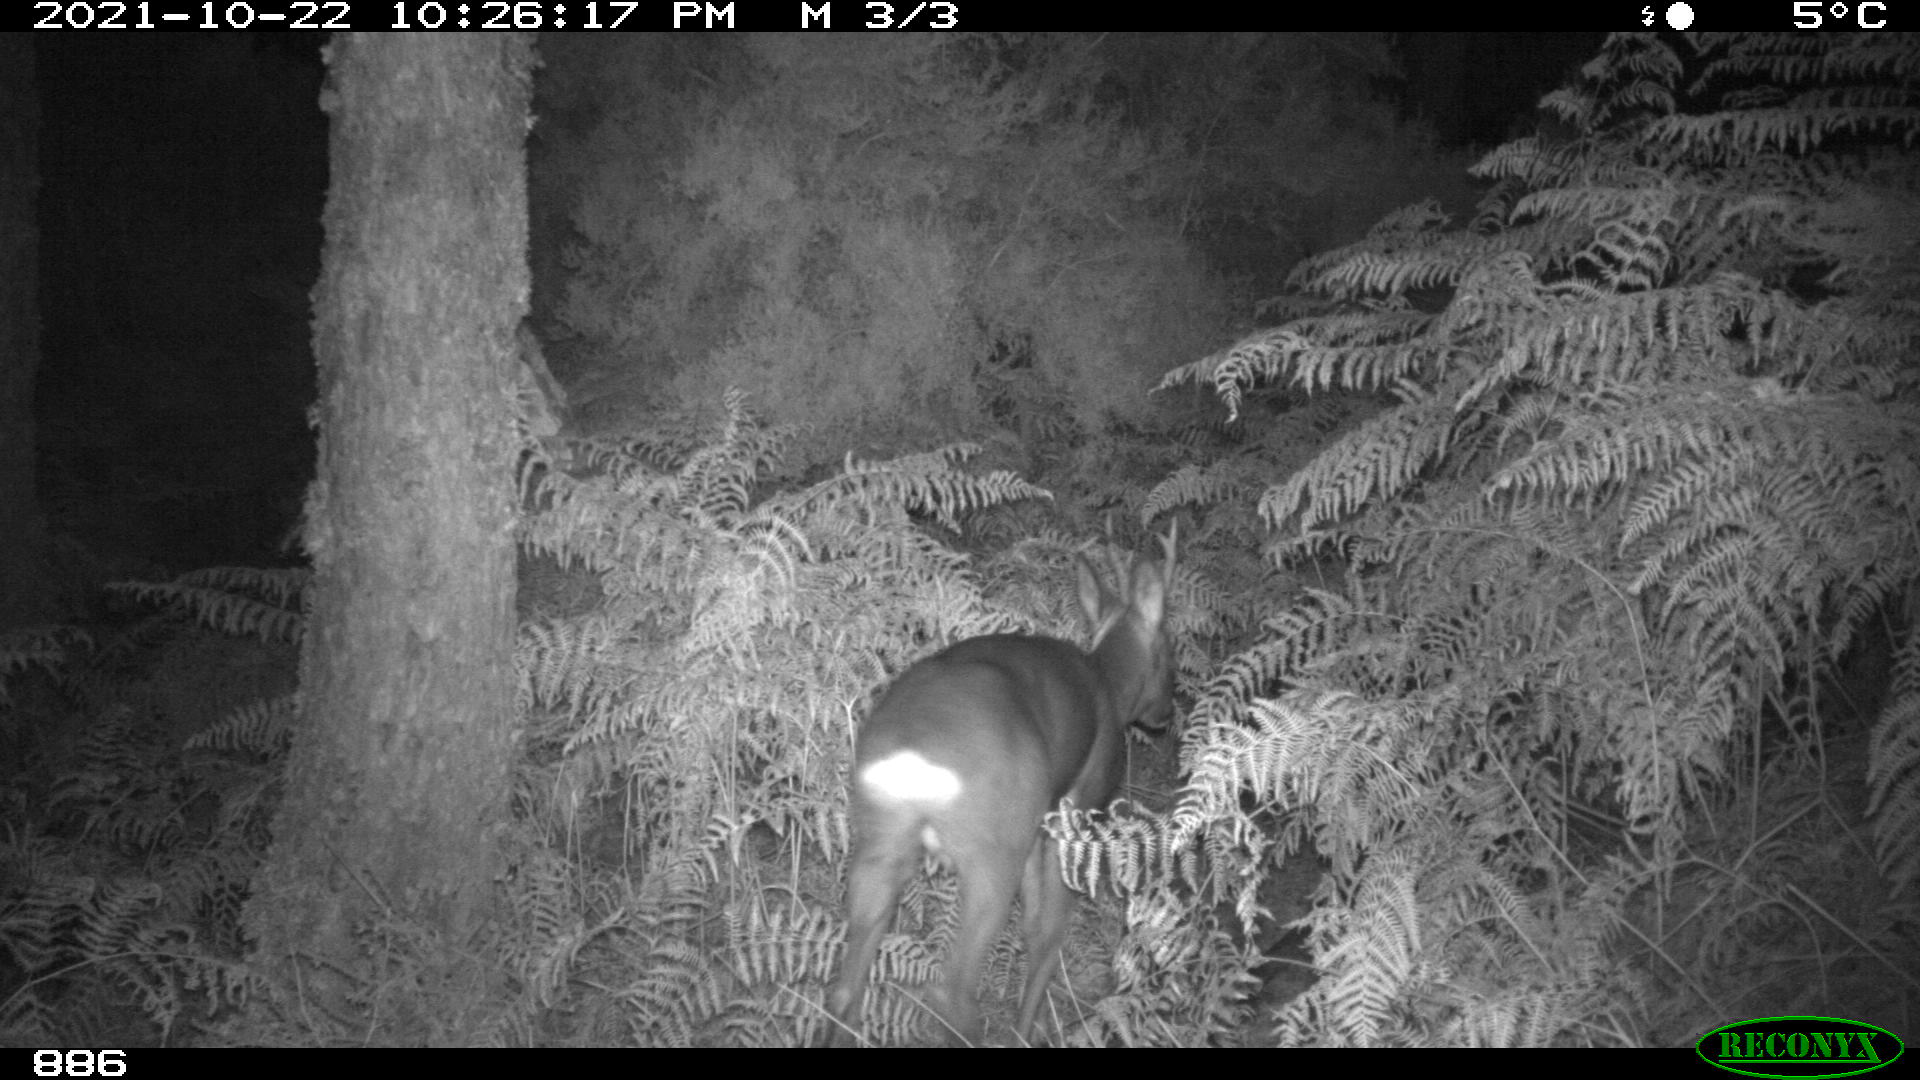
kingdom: Animalia
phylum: Chordata
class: Mammalia
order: Artiodactyla
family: Cervidae
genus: Capreolus
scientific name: Capreolus capreolus
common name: Western roe deer
